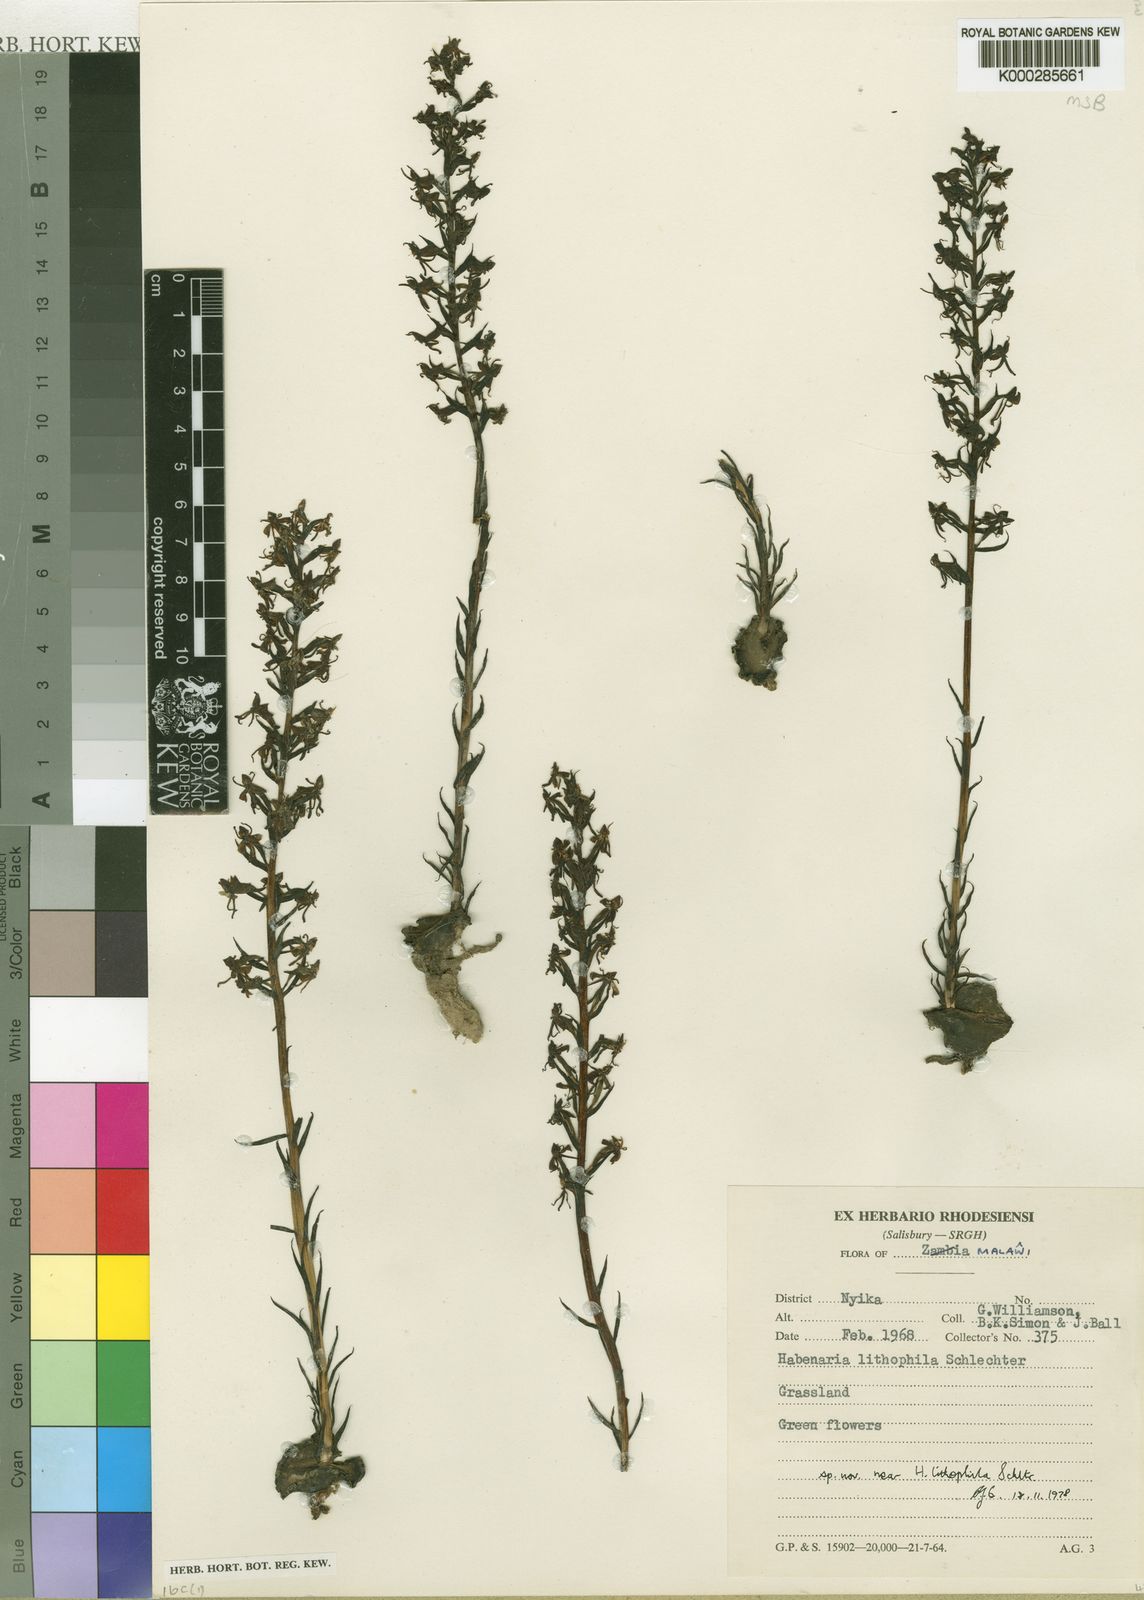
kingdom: Plantae
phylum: Tracheophyta
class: Liliopsida
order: Asparagales
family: Orchidaceae
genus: Habenaria
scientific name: Habenaria nyikensis
